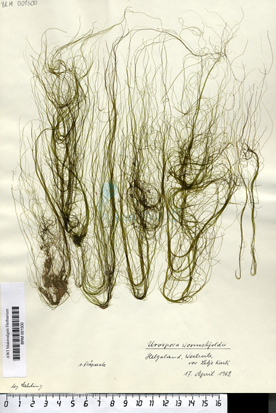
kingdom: Plantae
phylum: Chlorophyta
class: Ulvophyceae
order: Ulotrichales
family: Ulotrichaceae
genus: Urospora
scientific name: Urospora wormskioldii
